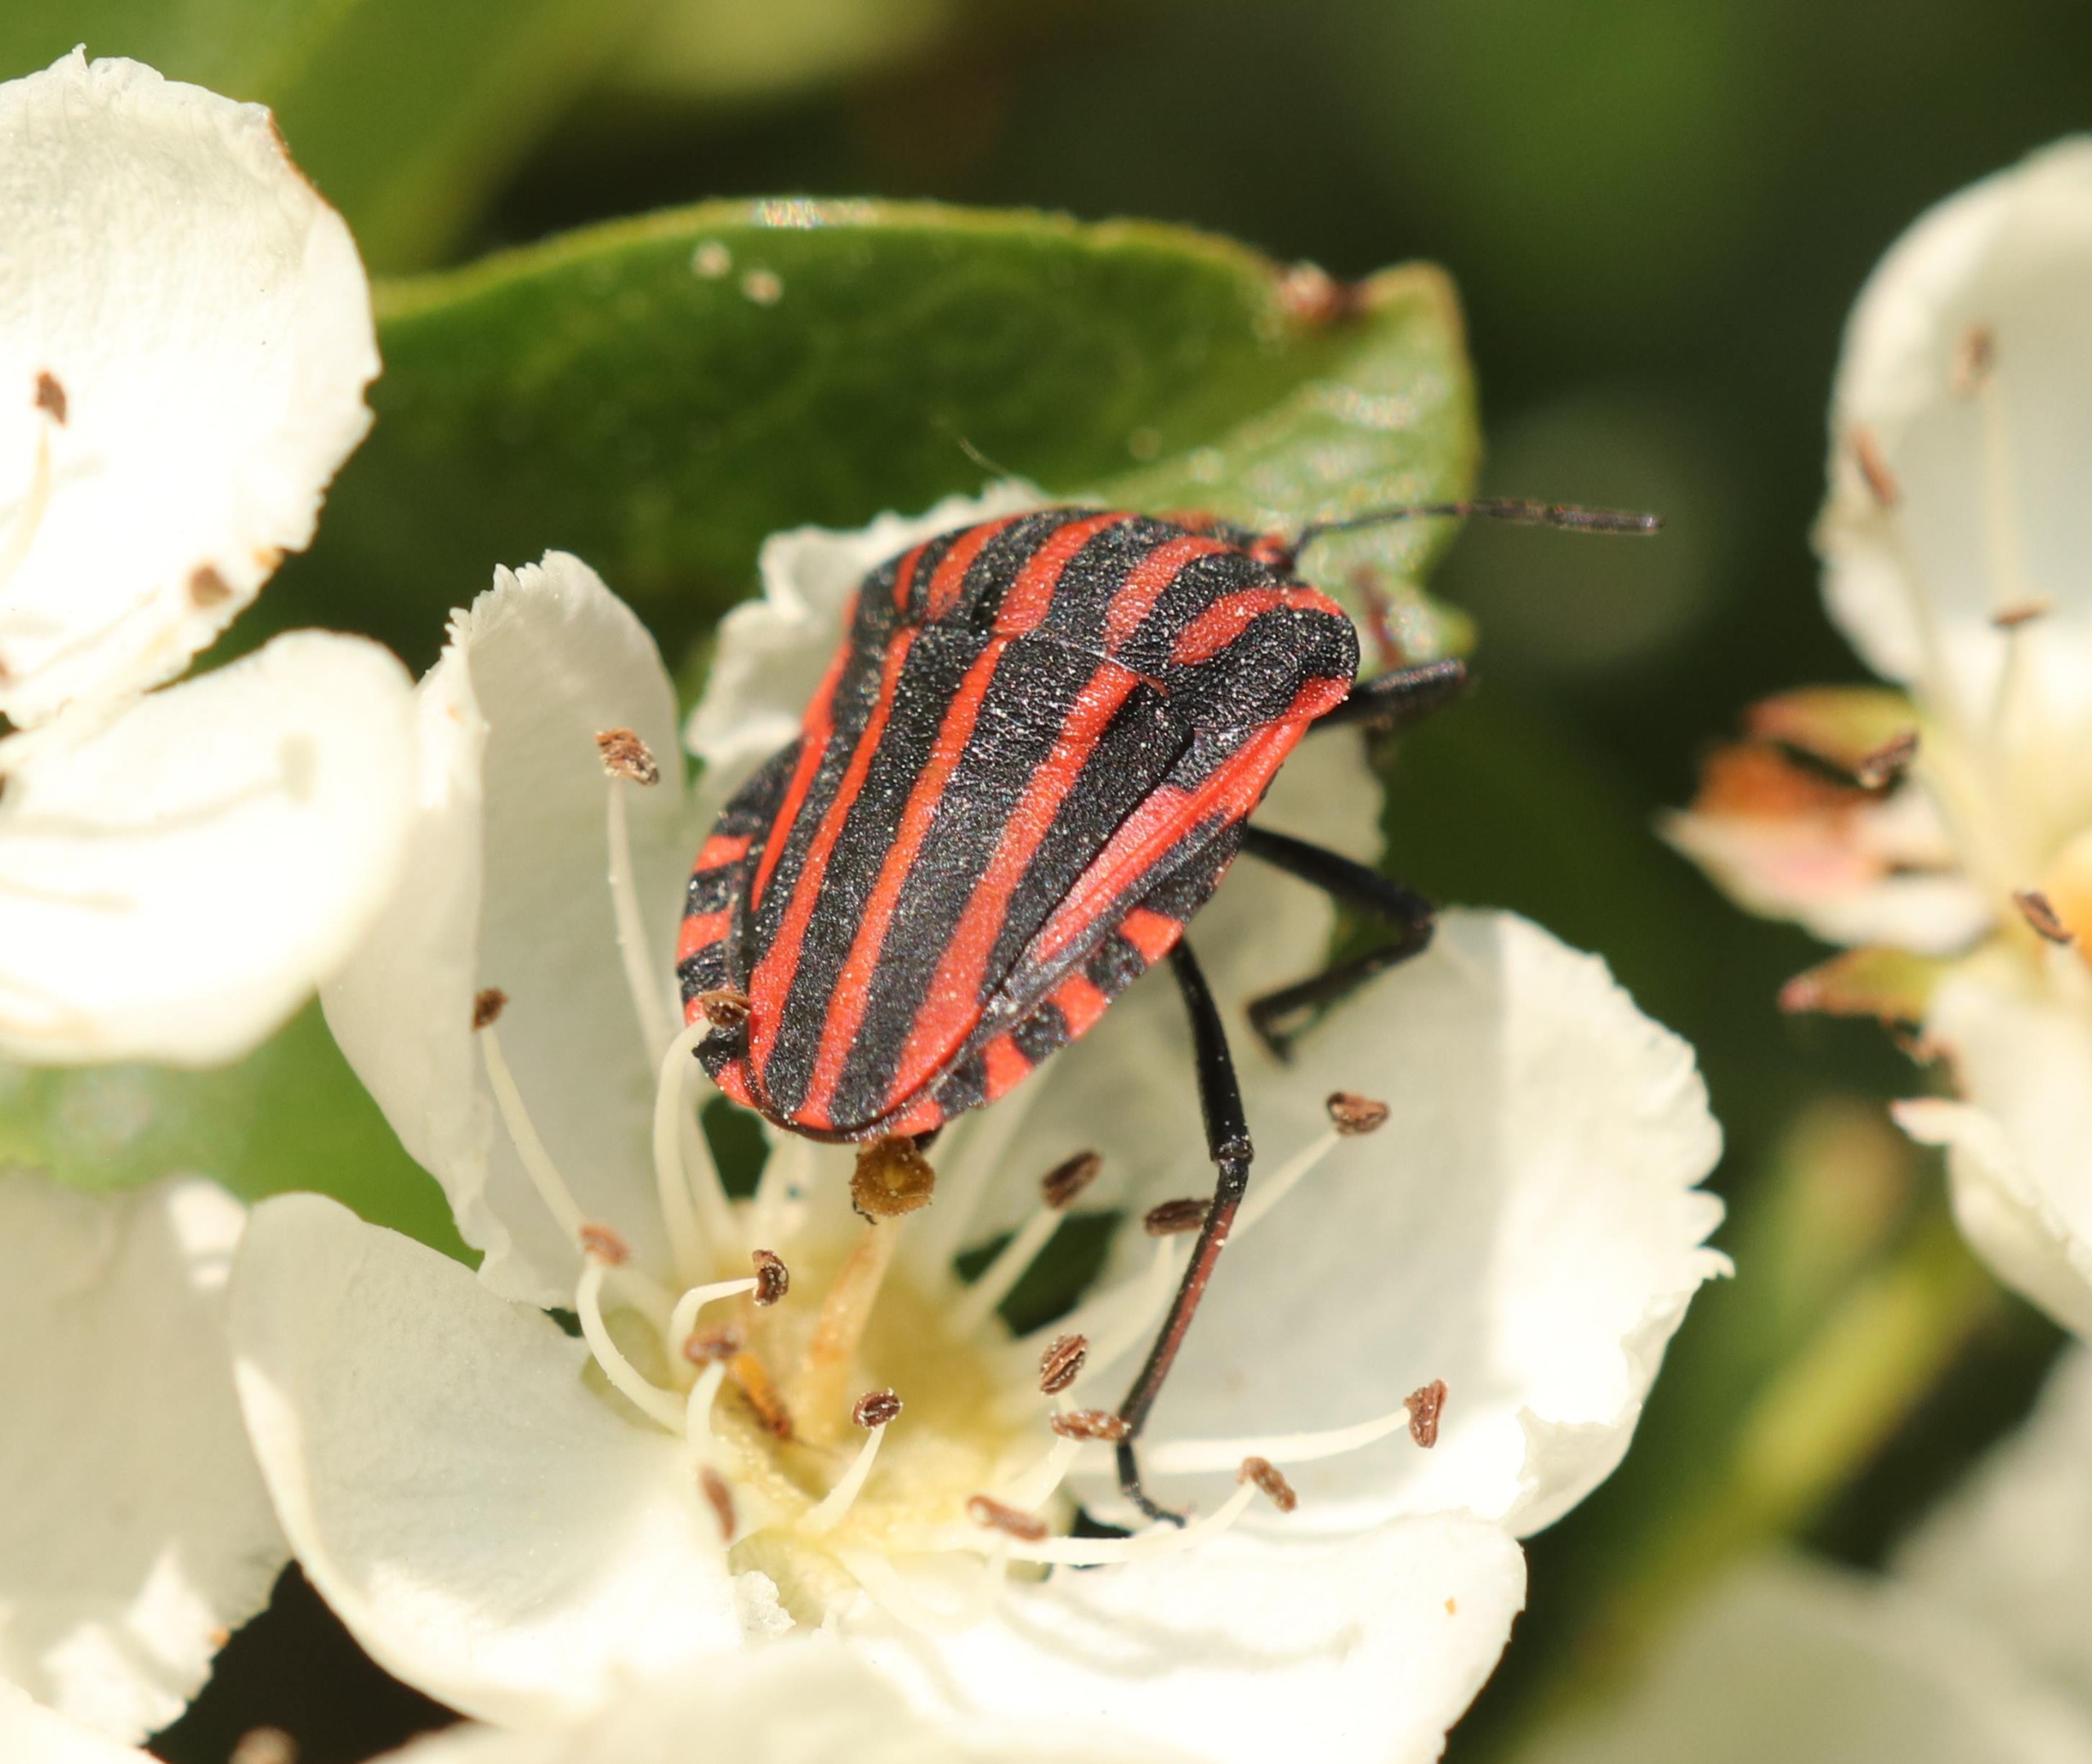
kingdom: Animalia
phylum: Arthropoda
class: Insecta
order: Hemiptera
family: Pentatomidae
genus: Graphosoma
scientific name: Graphosoma italicum
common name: Stribetæge
